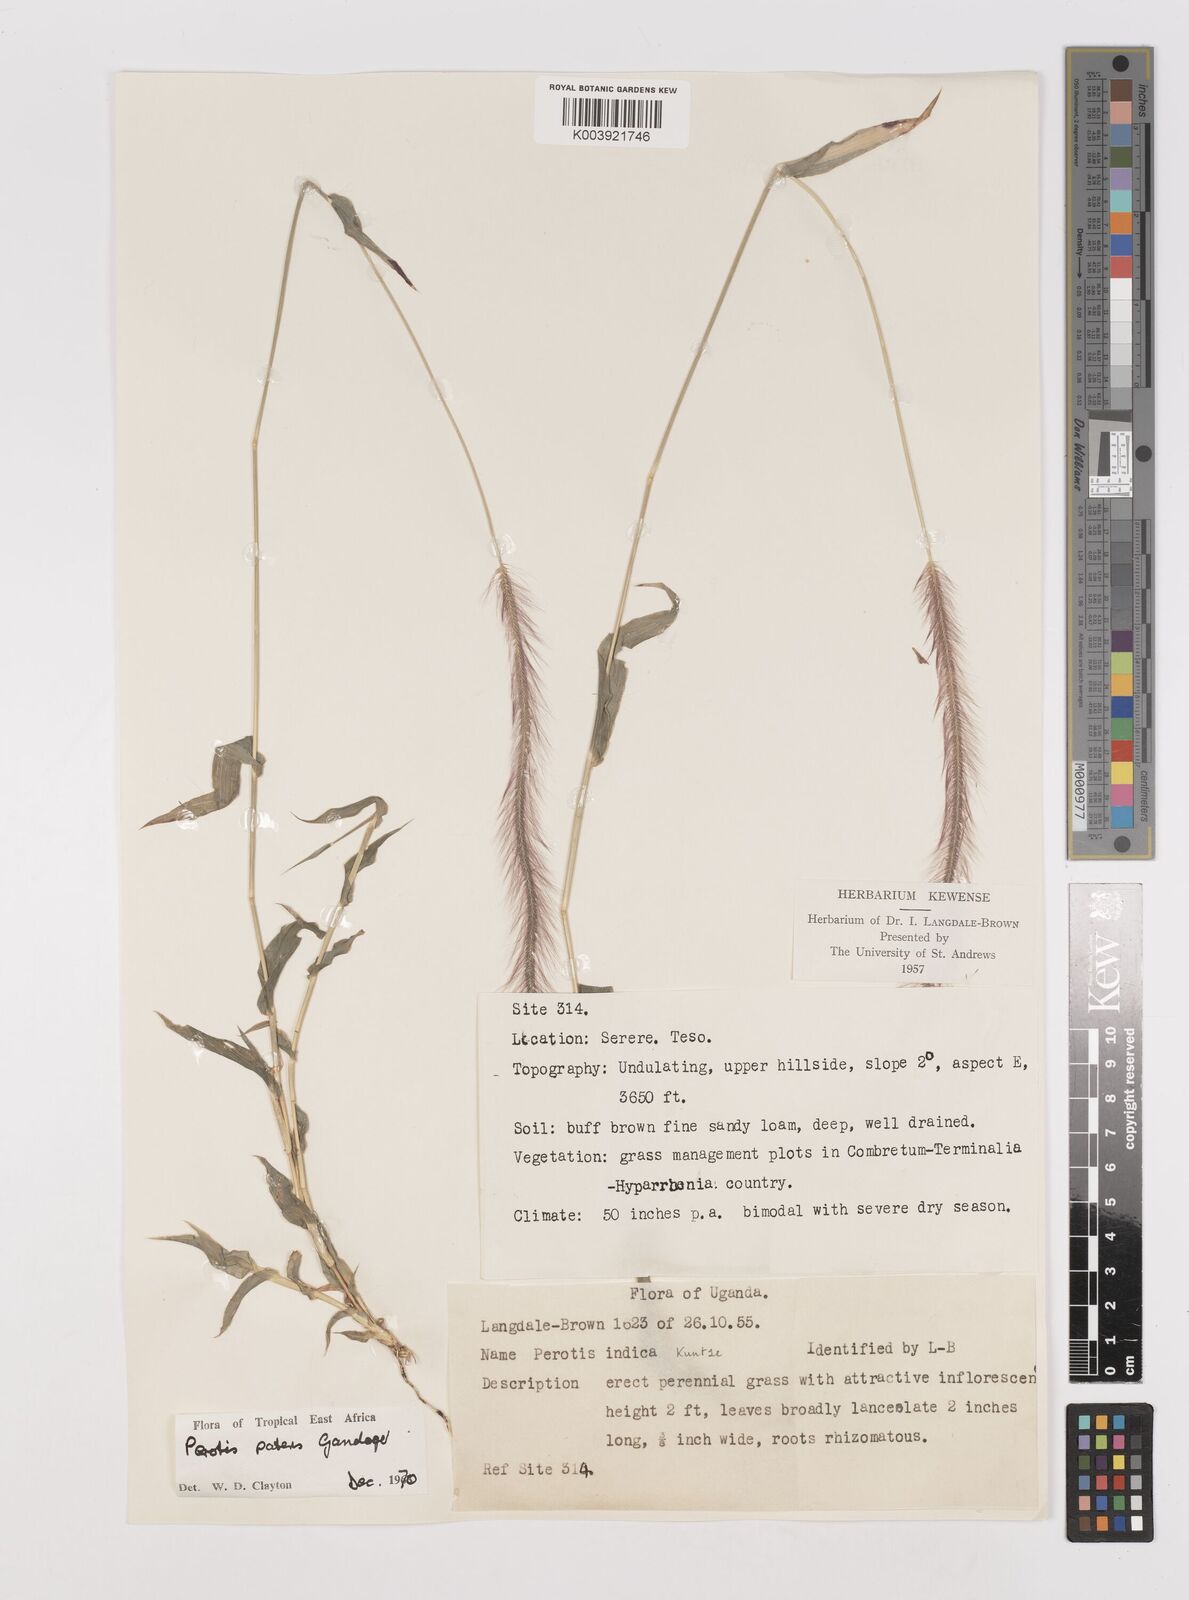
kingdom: Plantae
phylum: Tracheophyta
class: Liliopsida
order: Poales
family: Poaceae
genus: Perotis
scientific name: Perotis patens
